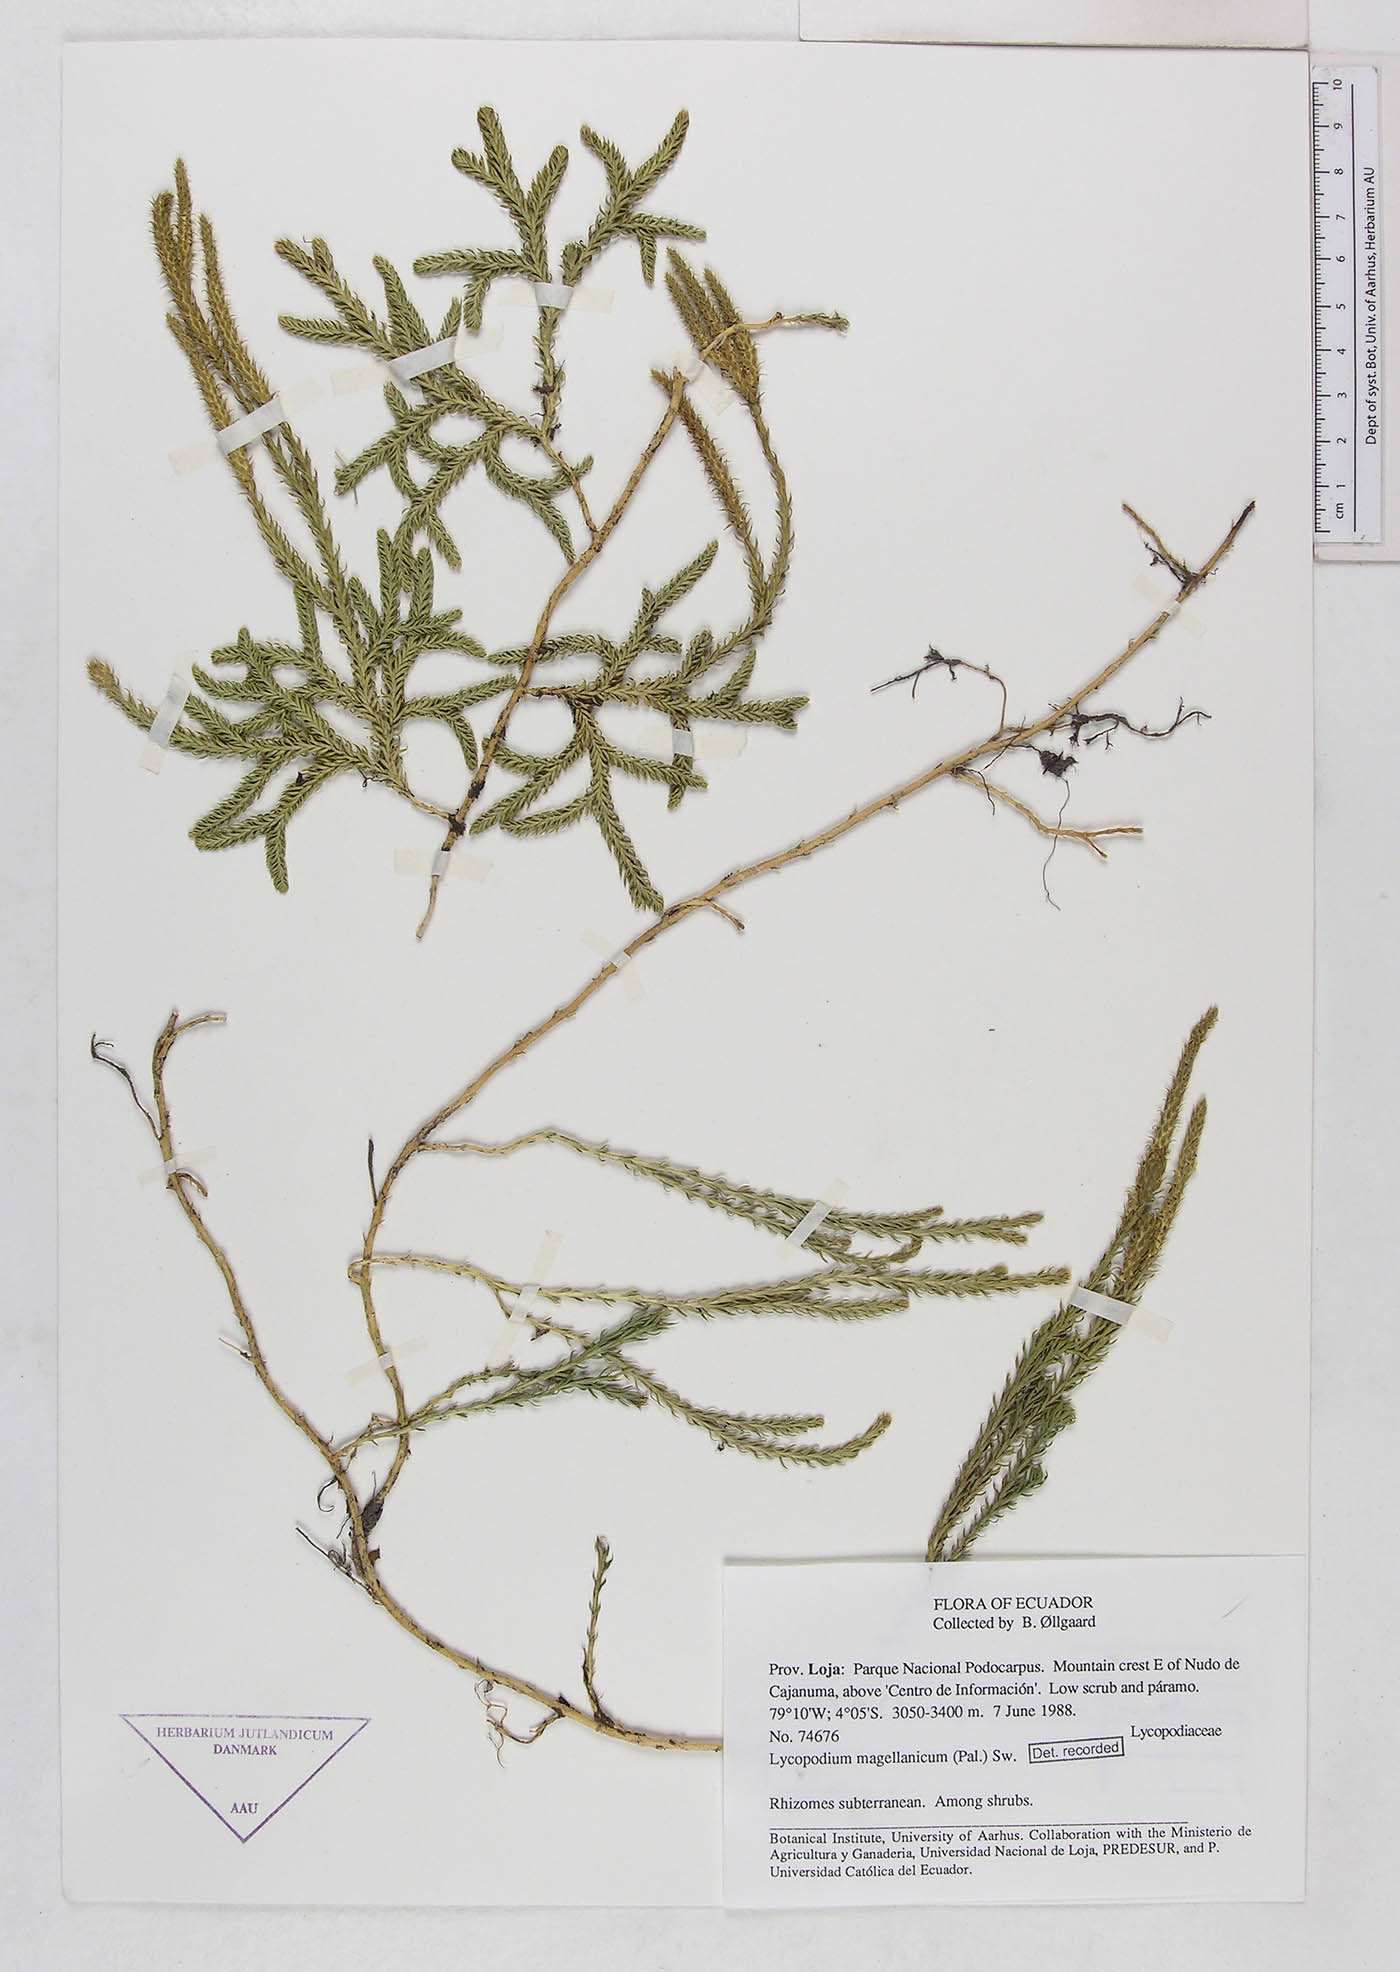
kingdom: Plantae
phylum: Tracheophyta
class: Lycopodiopsida
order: Lycopodiales
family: Lycopodiaceae
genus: Austrolycopodium
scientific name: Austrolycopodium magellanicum
